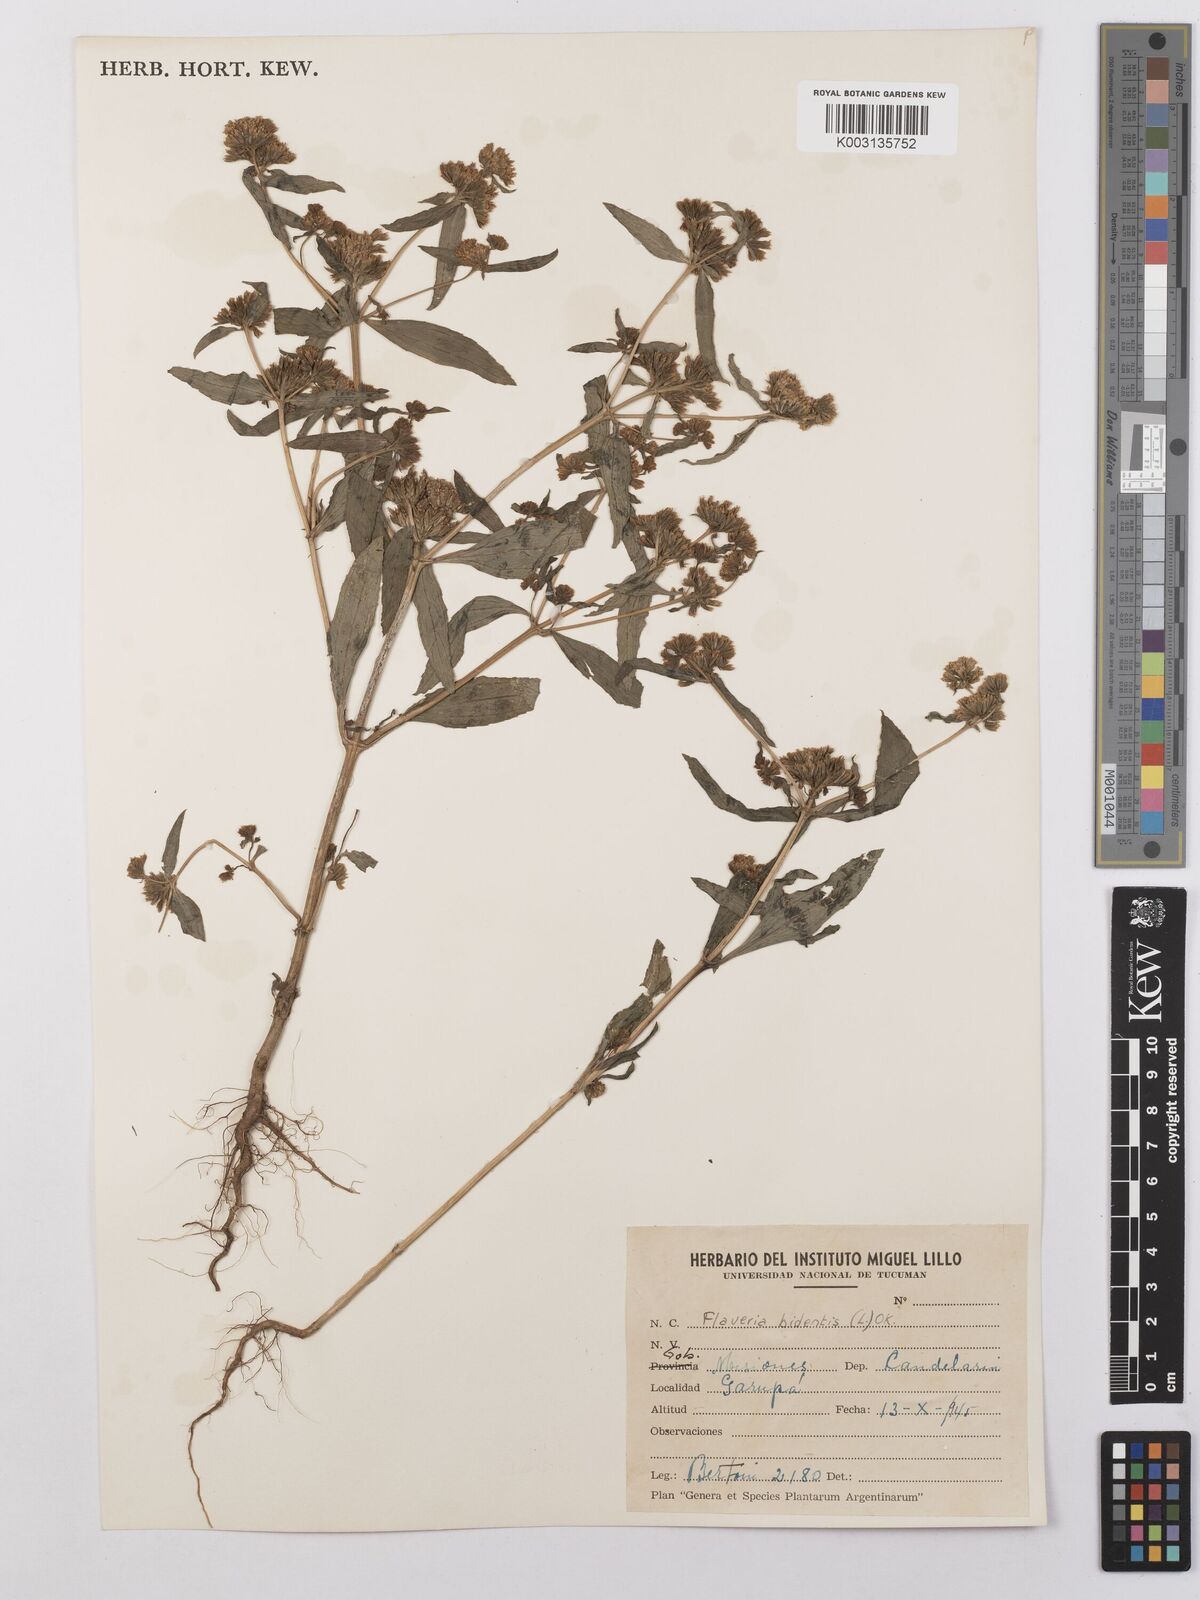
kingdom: Plantae
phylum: Tracheophyta
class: Magnoliopsida
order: Asterales
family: Asteraceae
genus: Flaveria
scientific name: Flaveria bidentis
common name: Coastal plain yellowtops
